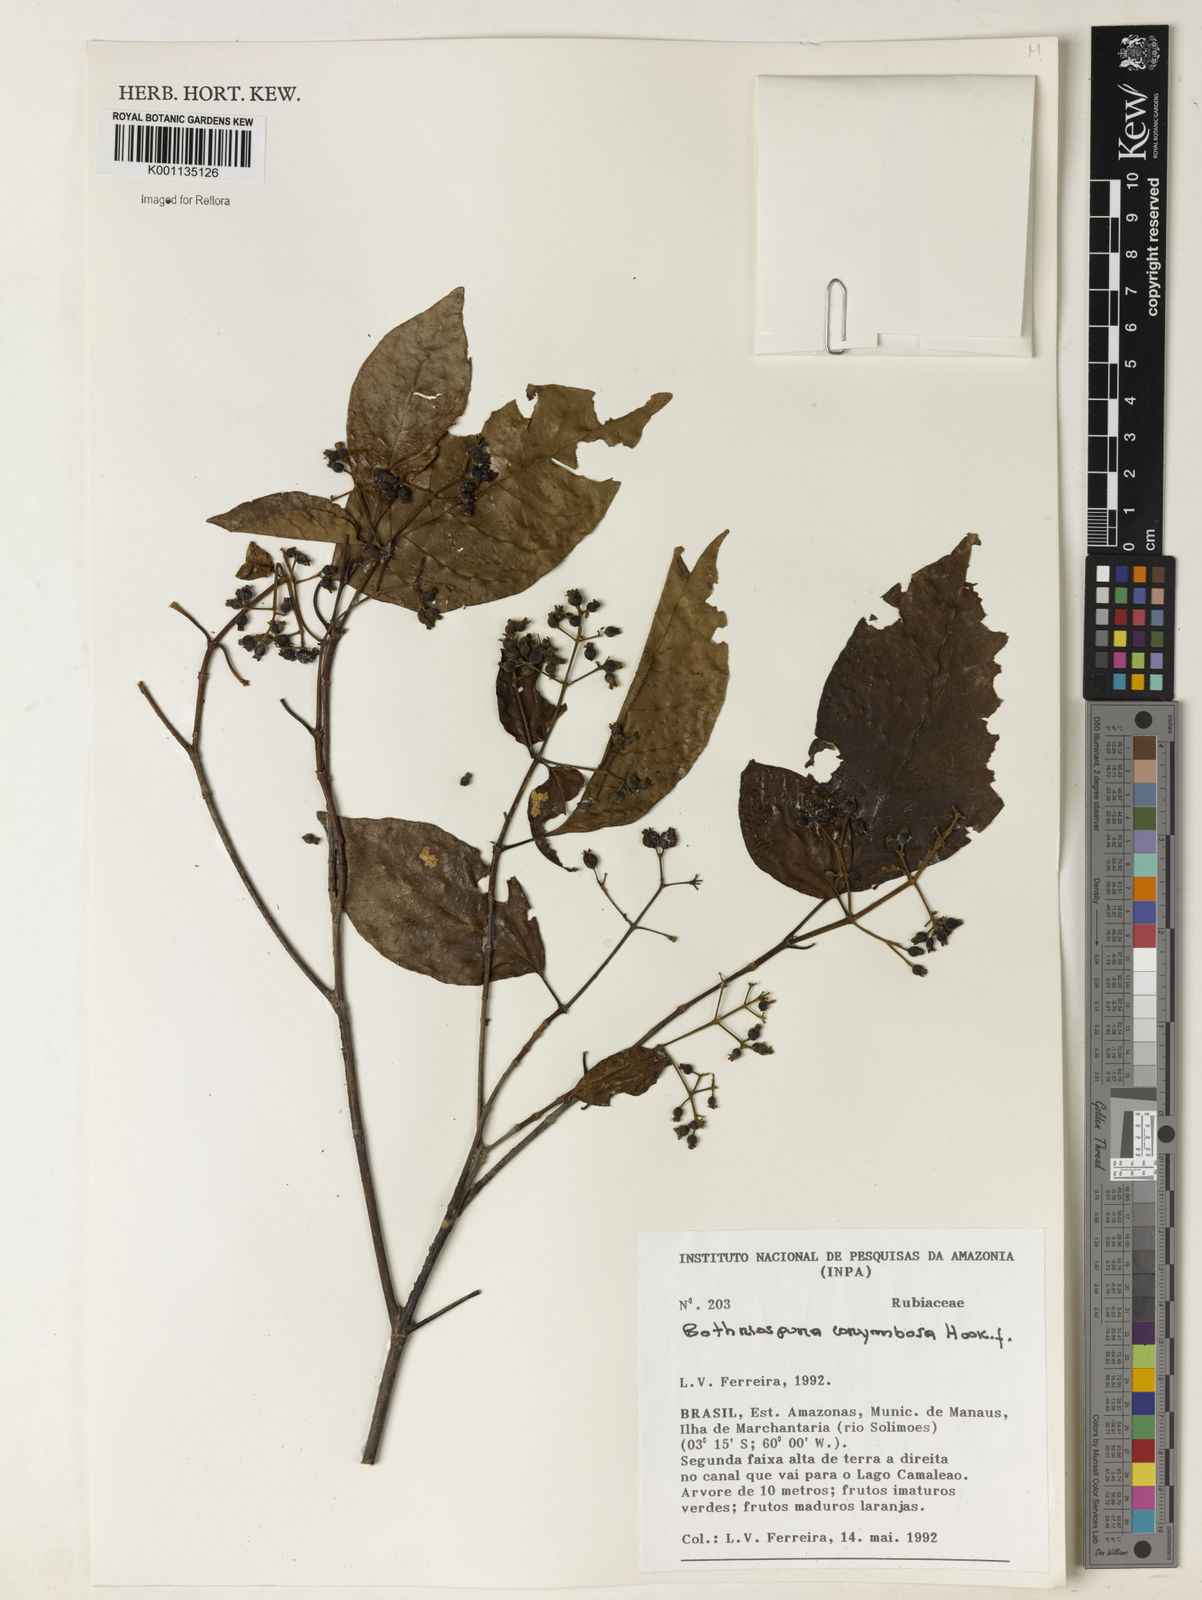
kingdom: Plantae
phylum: Tracheophyta
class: Magnoliopsida
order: Gentianales
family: Rubiaceae
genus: Bothriospora
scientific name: Bothriospora corymbosa
